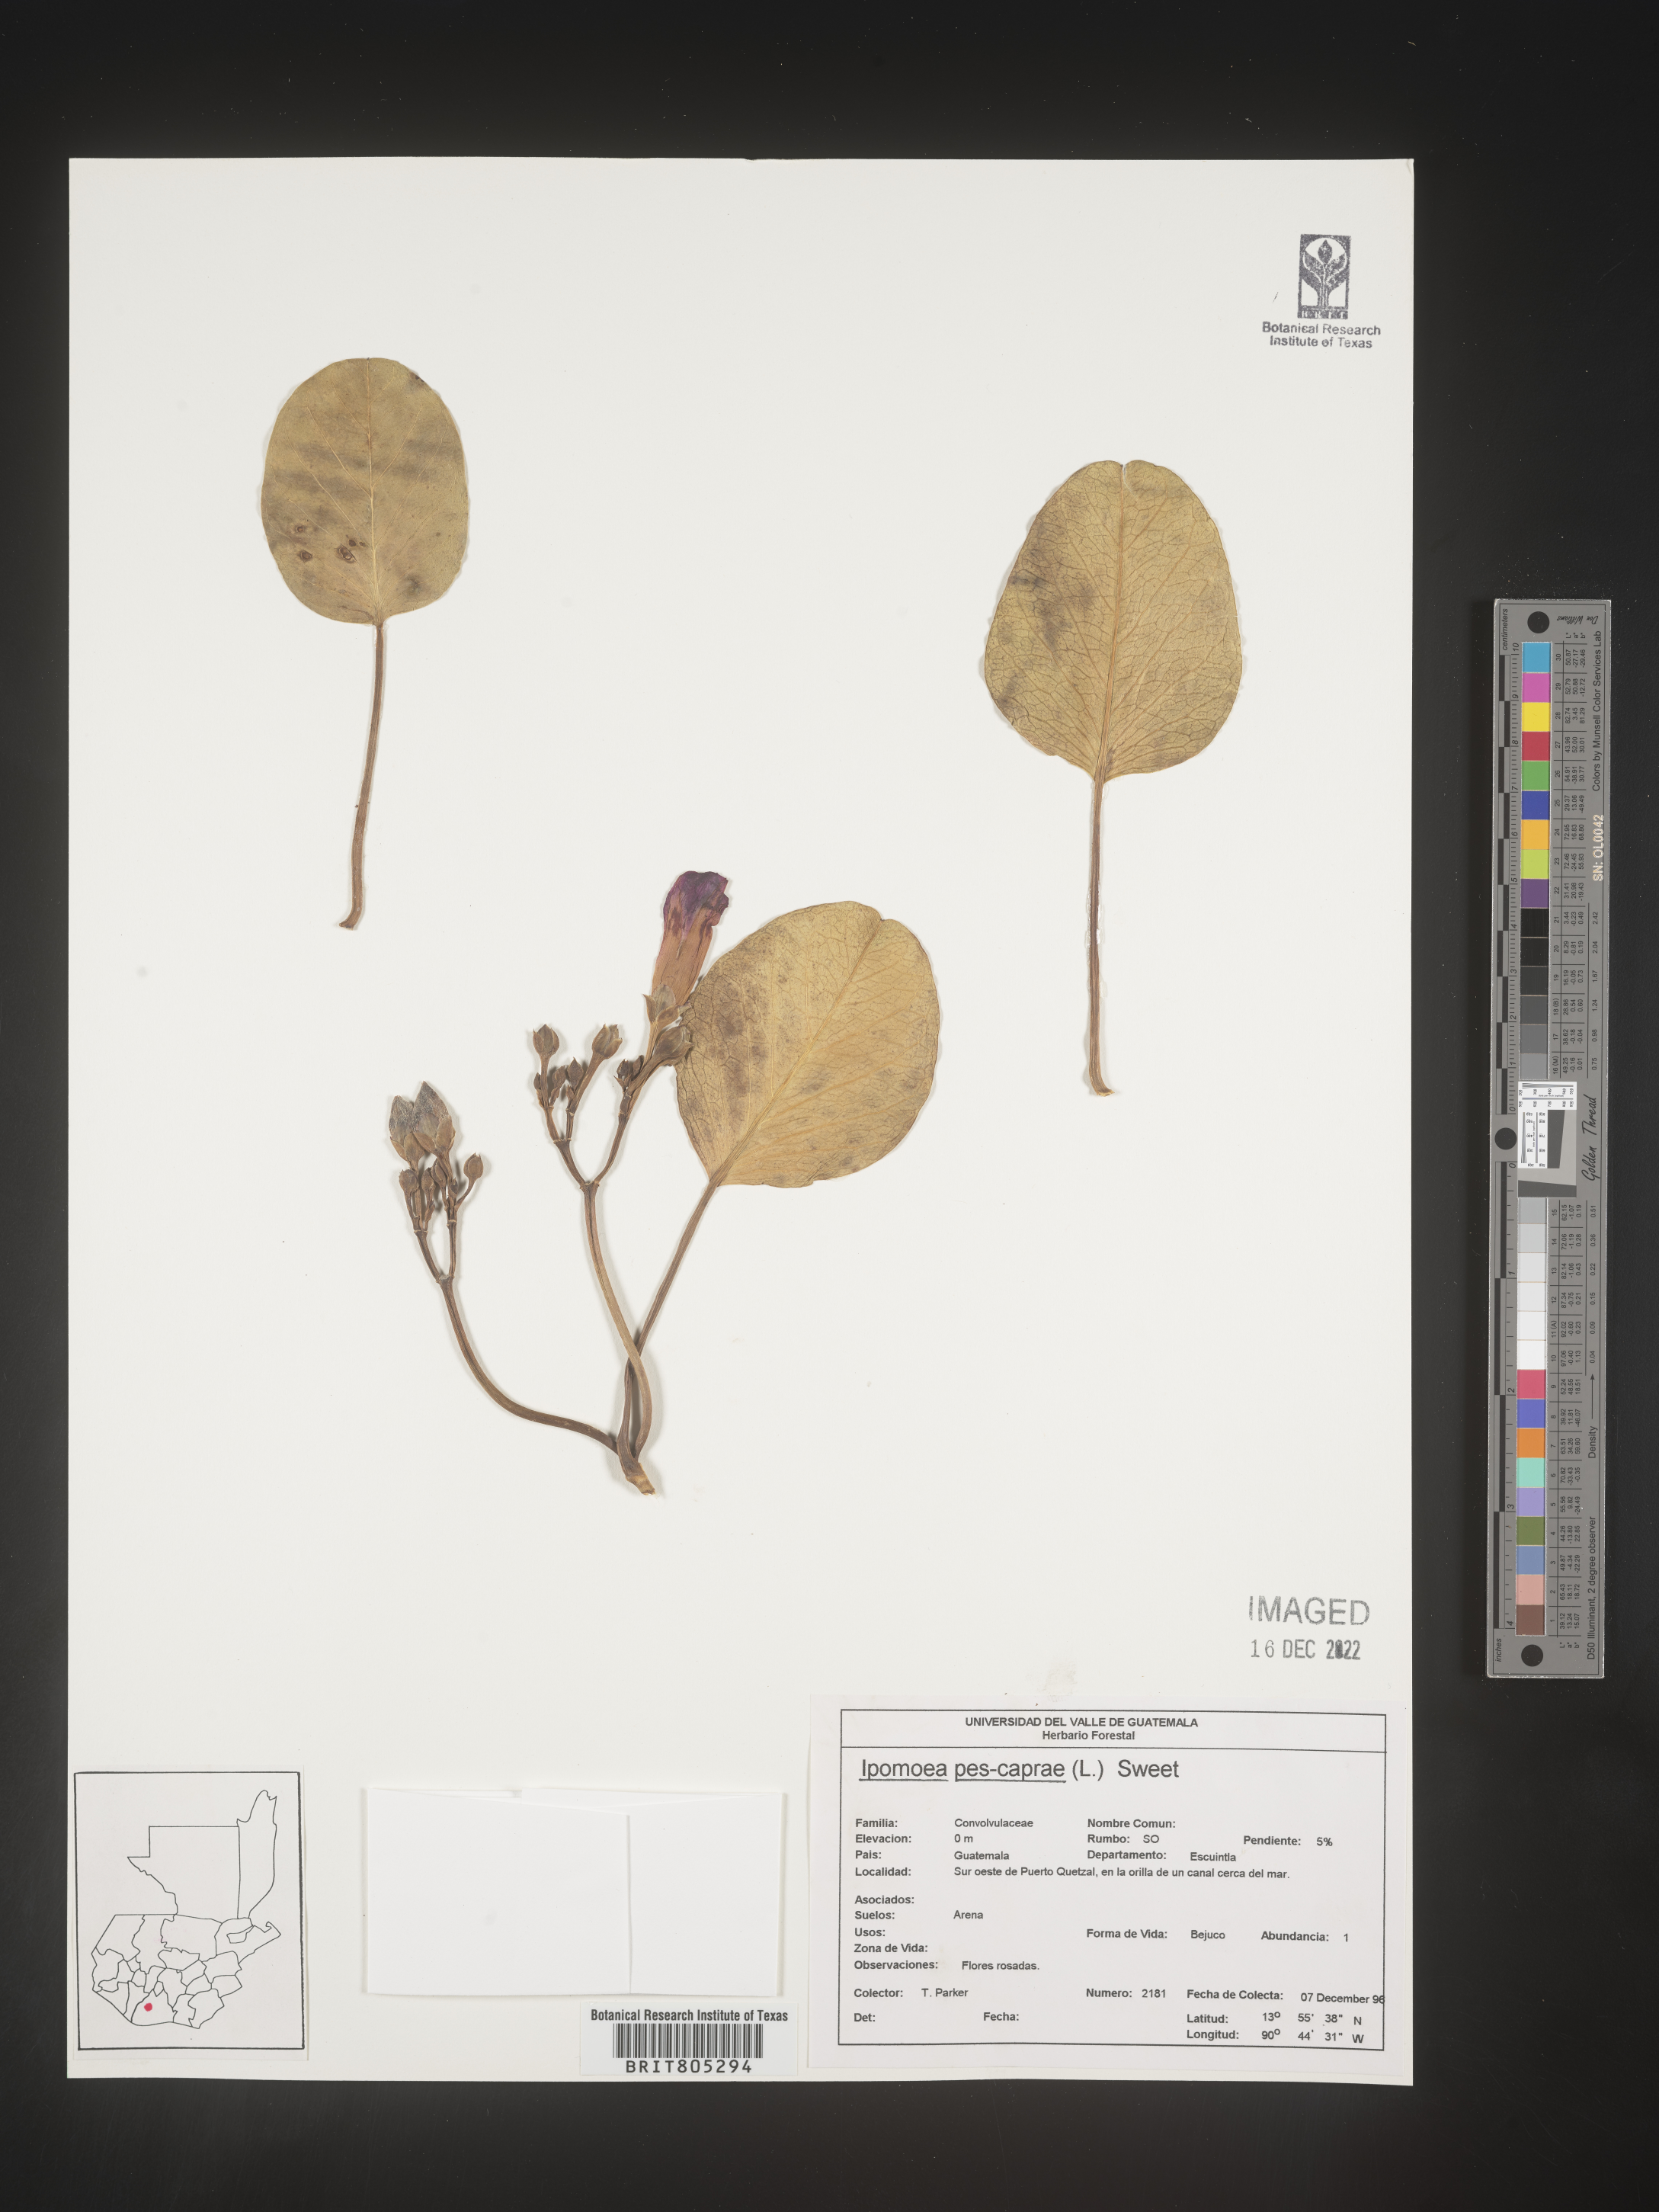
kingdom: Plantae
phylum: Tracheophyta
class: Magnoliopsida
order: Solanales
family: Convolvulaceae
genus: Ipomoea
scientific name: Ipomoea
